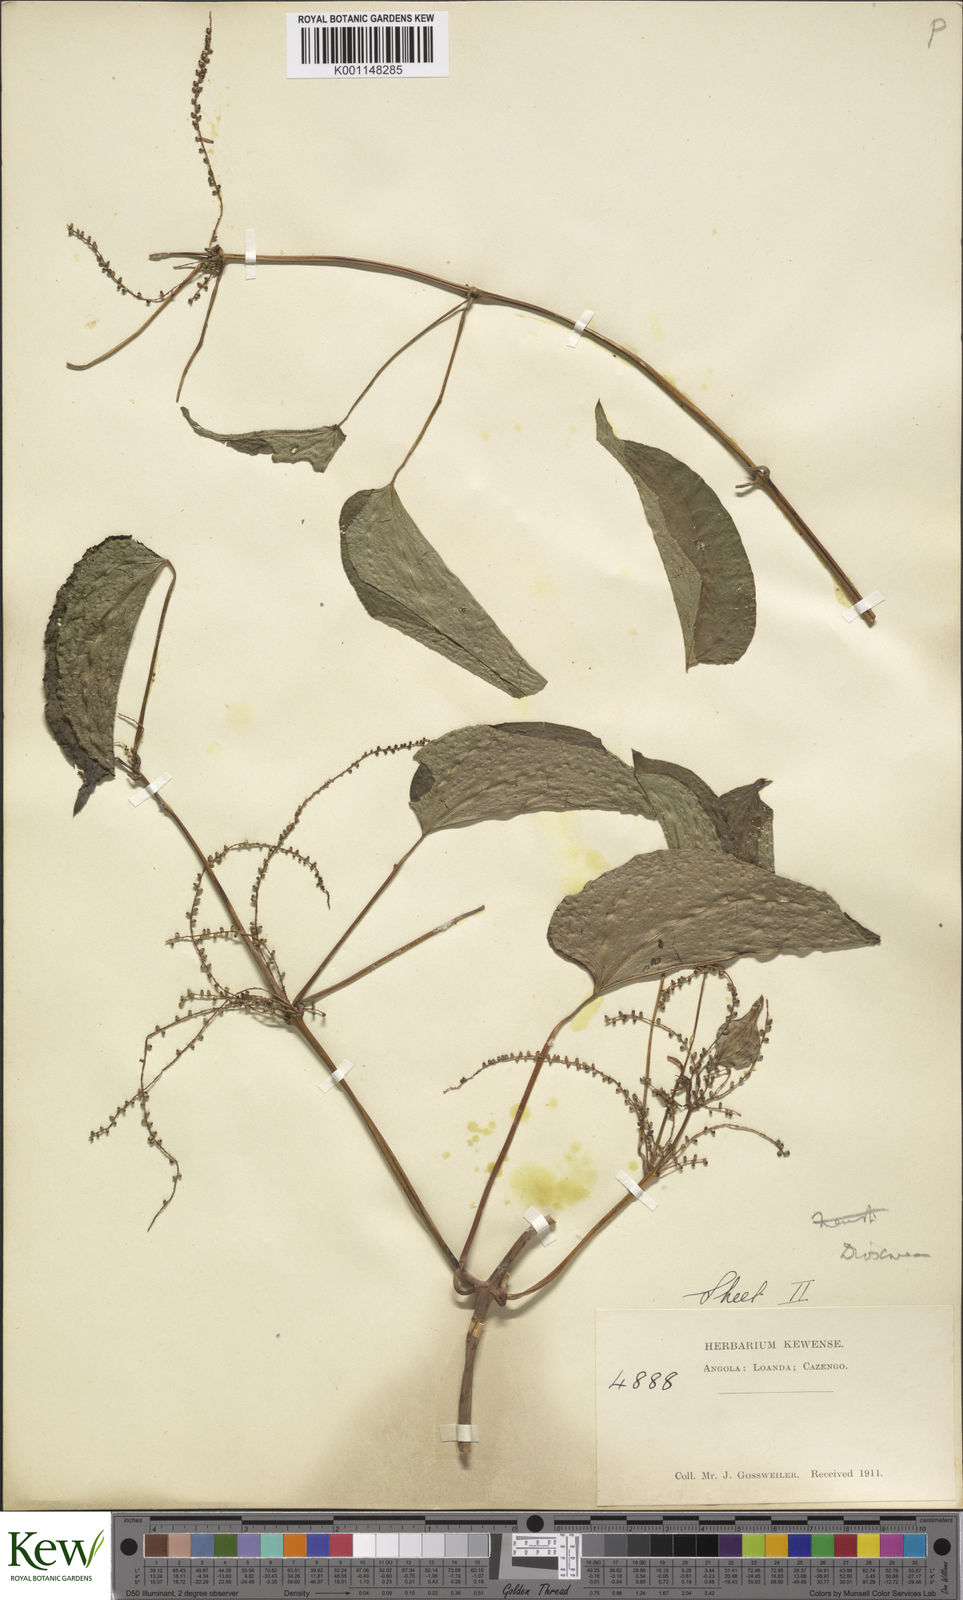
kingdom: Plantae
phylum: Tracheophyta
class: Liliopsida
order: Dioscoreales
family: Dioscoreaceae
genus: Dioscorea
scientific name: Dioscorea praehensilis
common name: Bush yam
